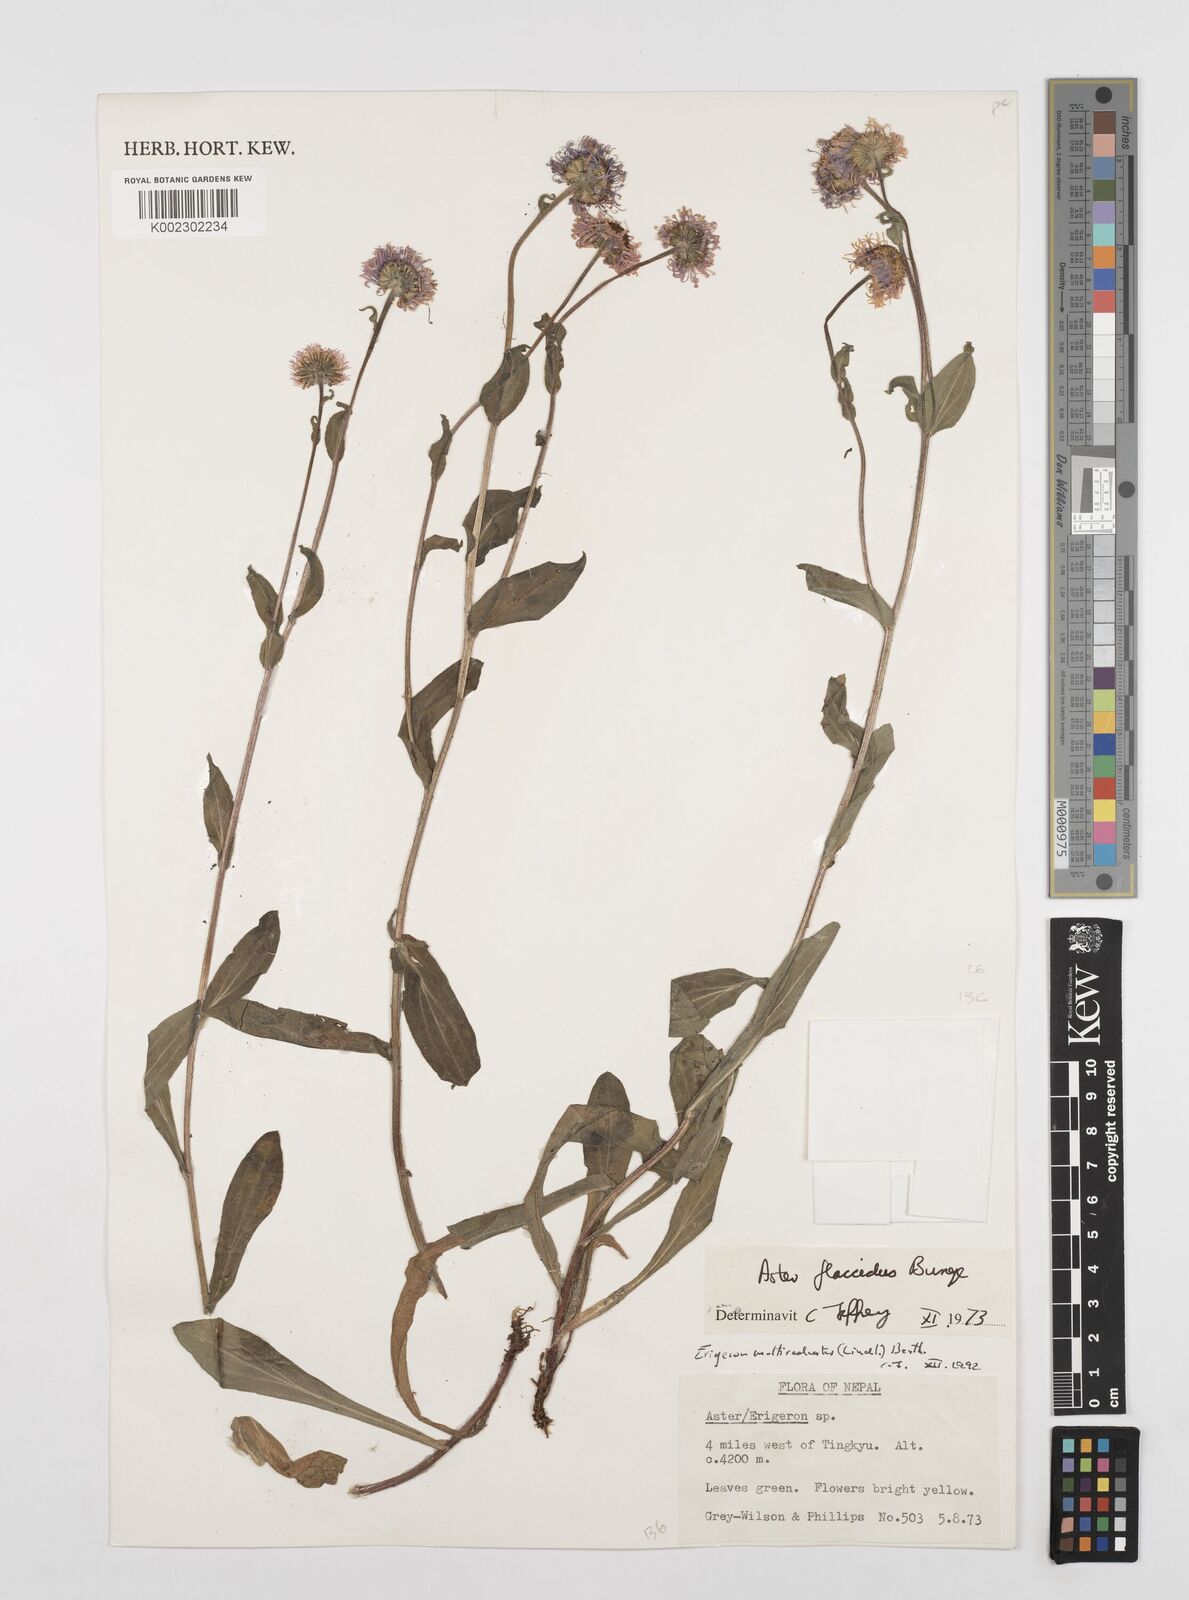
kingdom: Plantae
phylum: Tracheophyta
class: Magnoliopsida
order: Asterales
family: Asteraceae
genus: Erigeron
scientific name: Erigeron multiradiatus
